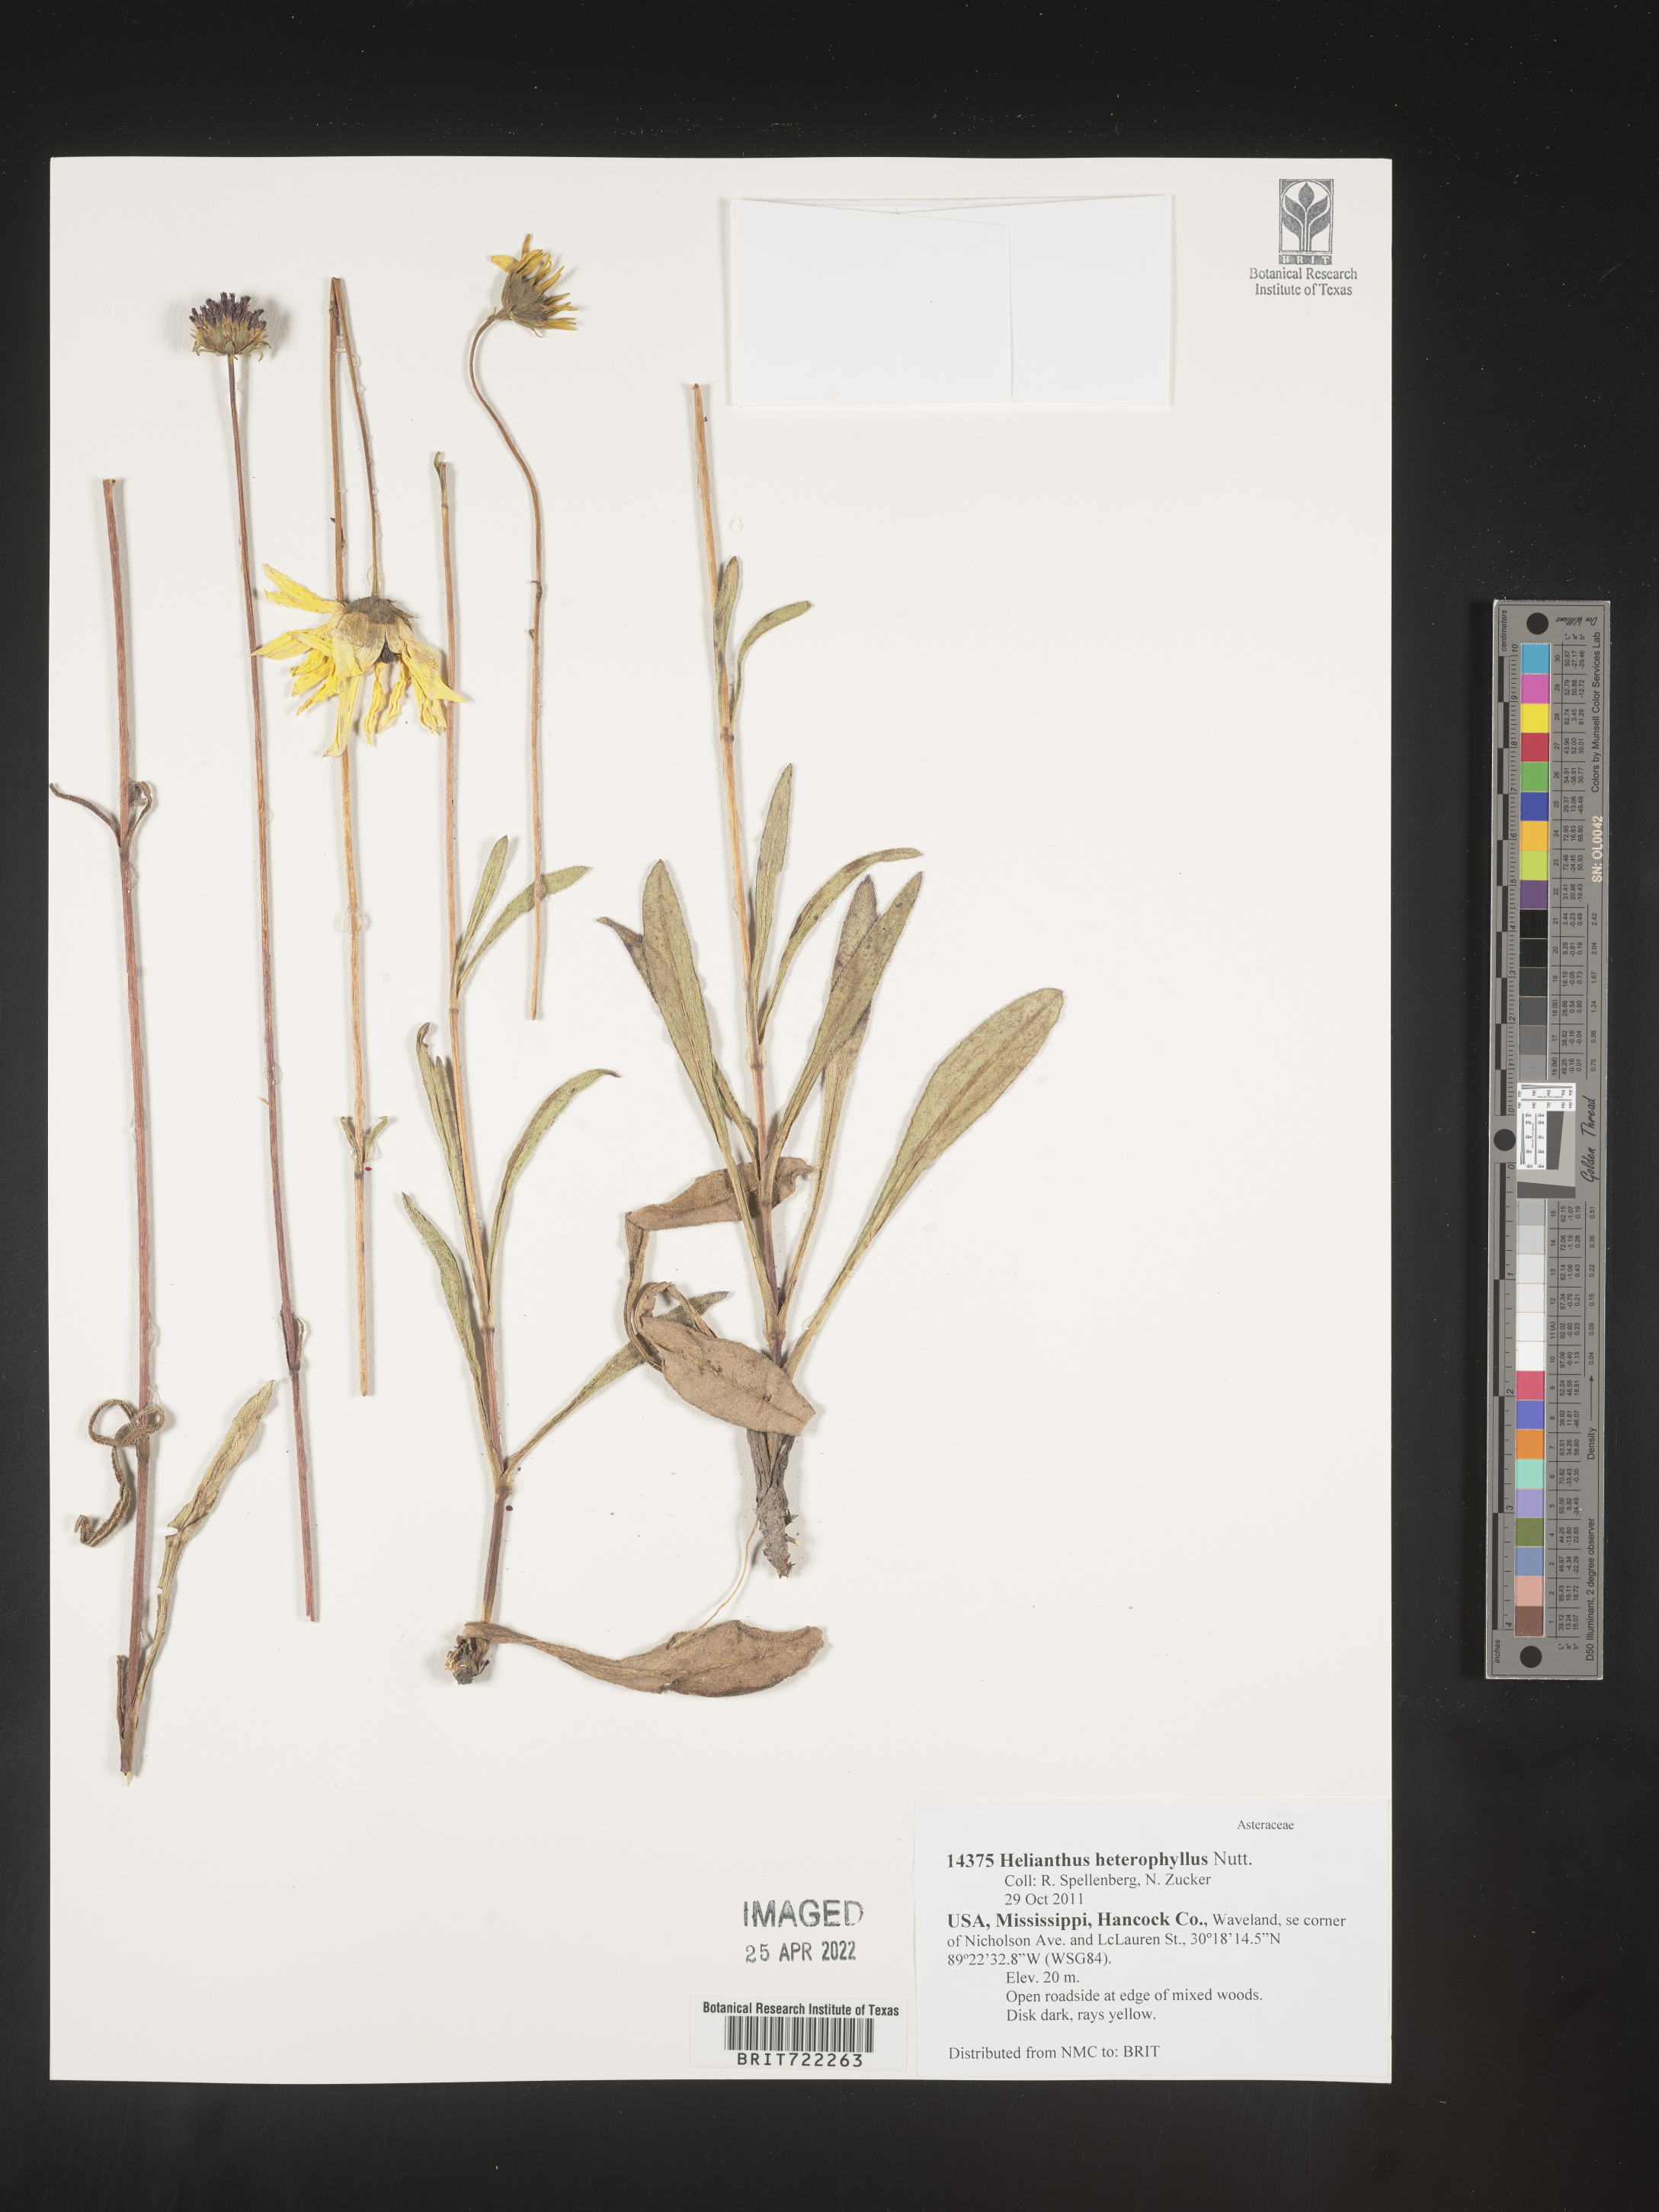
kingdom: Plantae
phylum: Tracheophyta
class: Magnoliopsida
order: Asterales
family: Asteraceae
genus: Helianthus
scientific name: Helianthus heterophyllus
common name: Wetland sunflower
